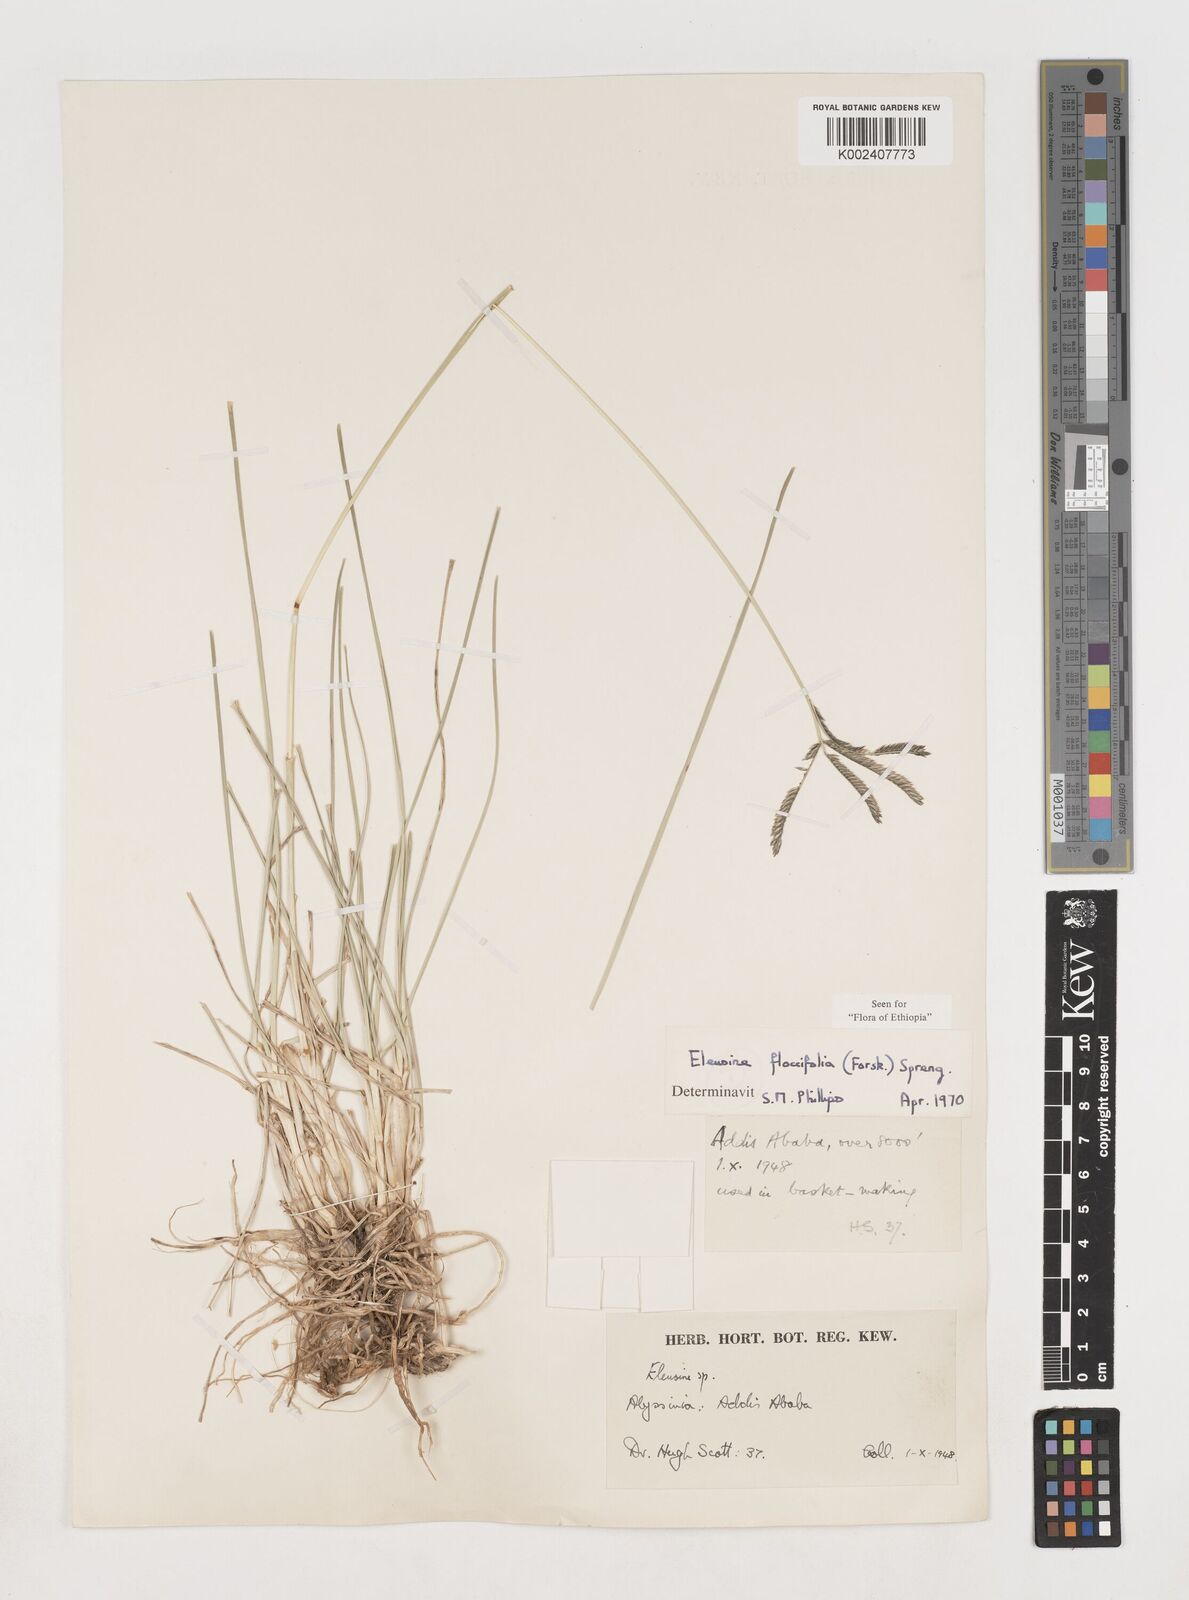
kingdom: Plantae
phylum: Tracheophyta
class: Liliopsida
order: Poales
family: Poaceae
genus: Eleusine
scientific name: Eleusine floccifolia
